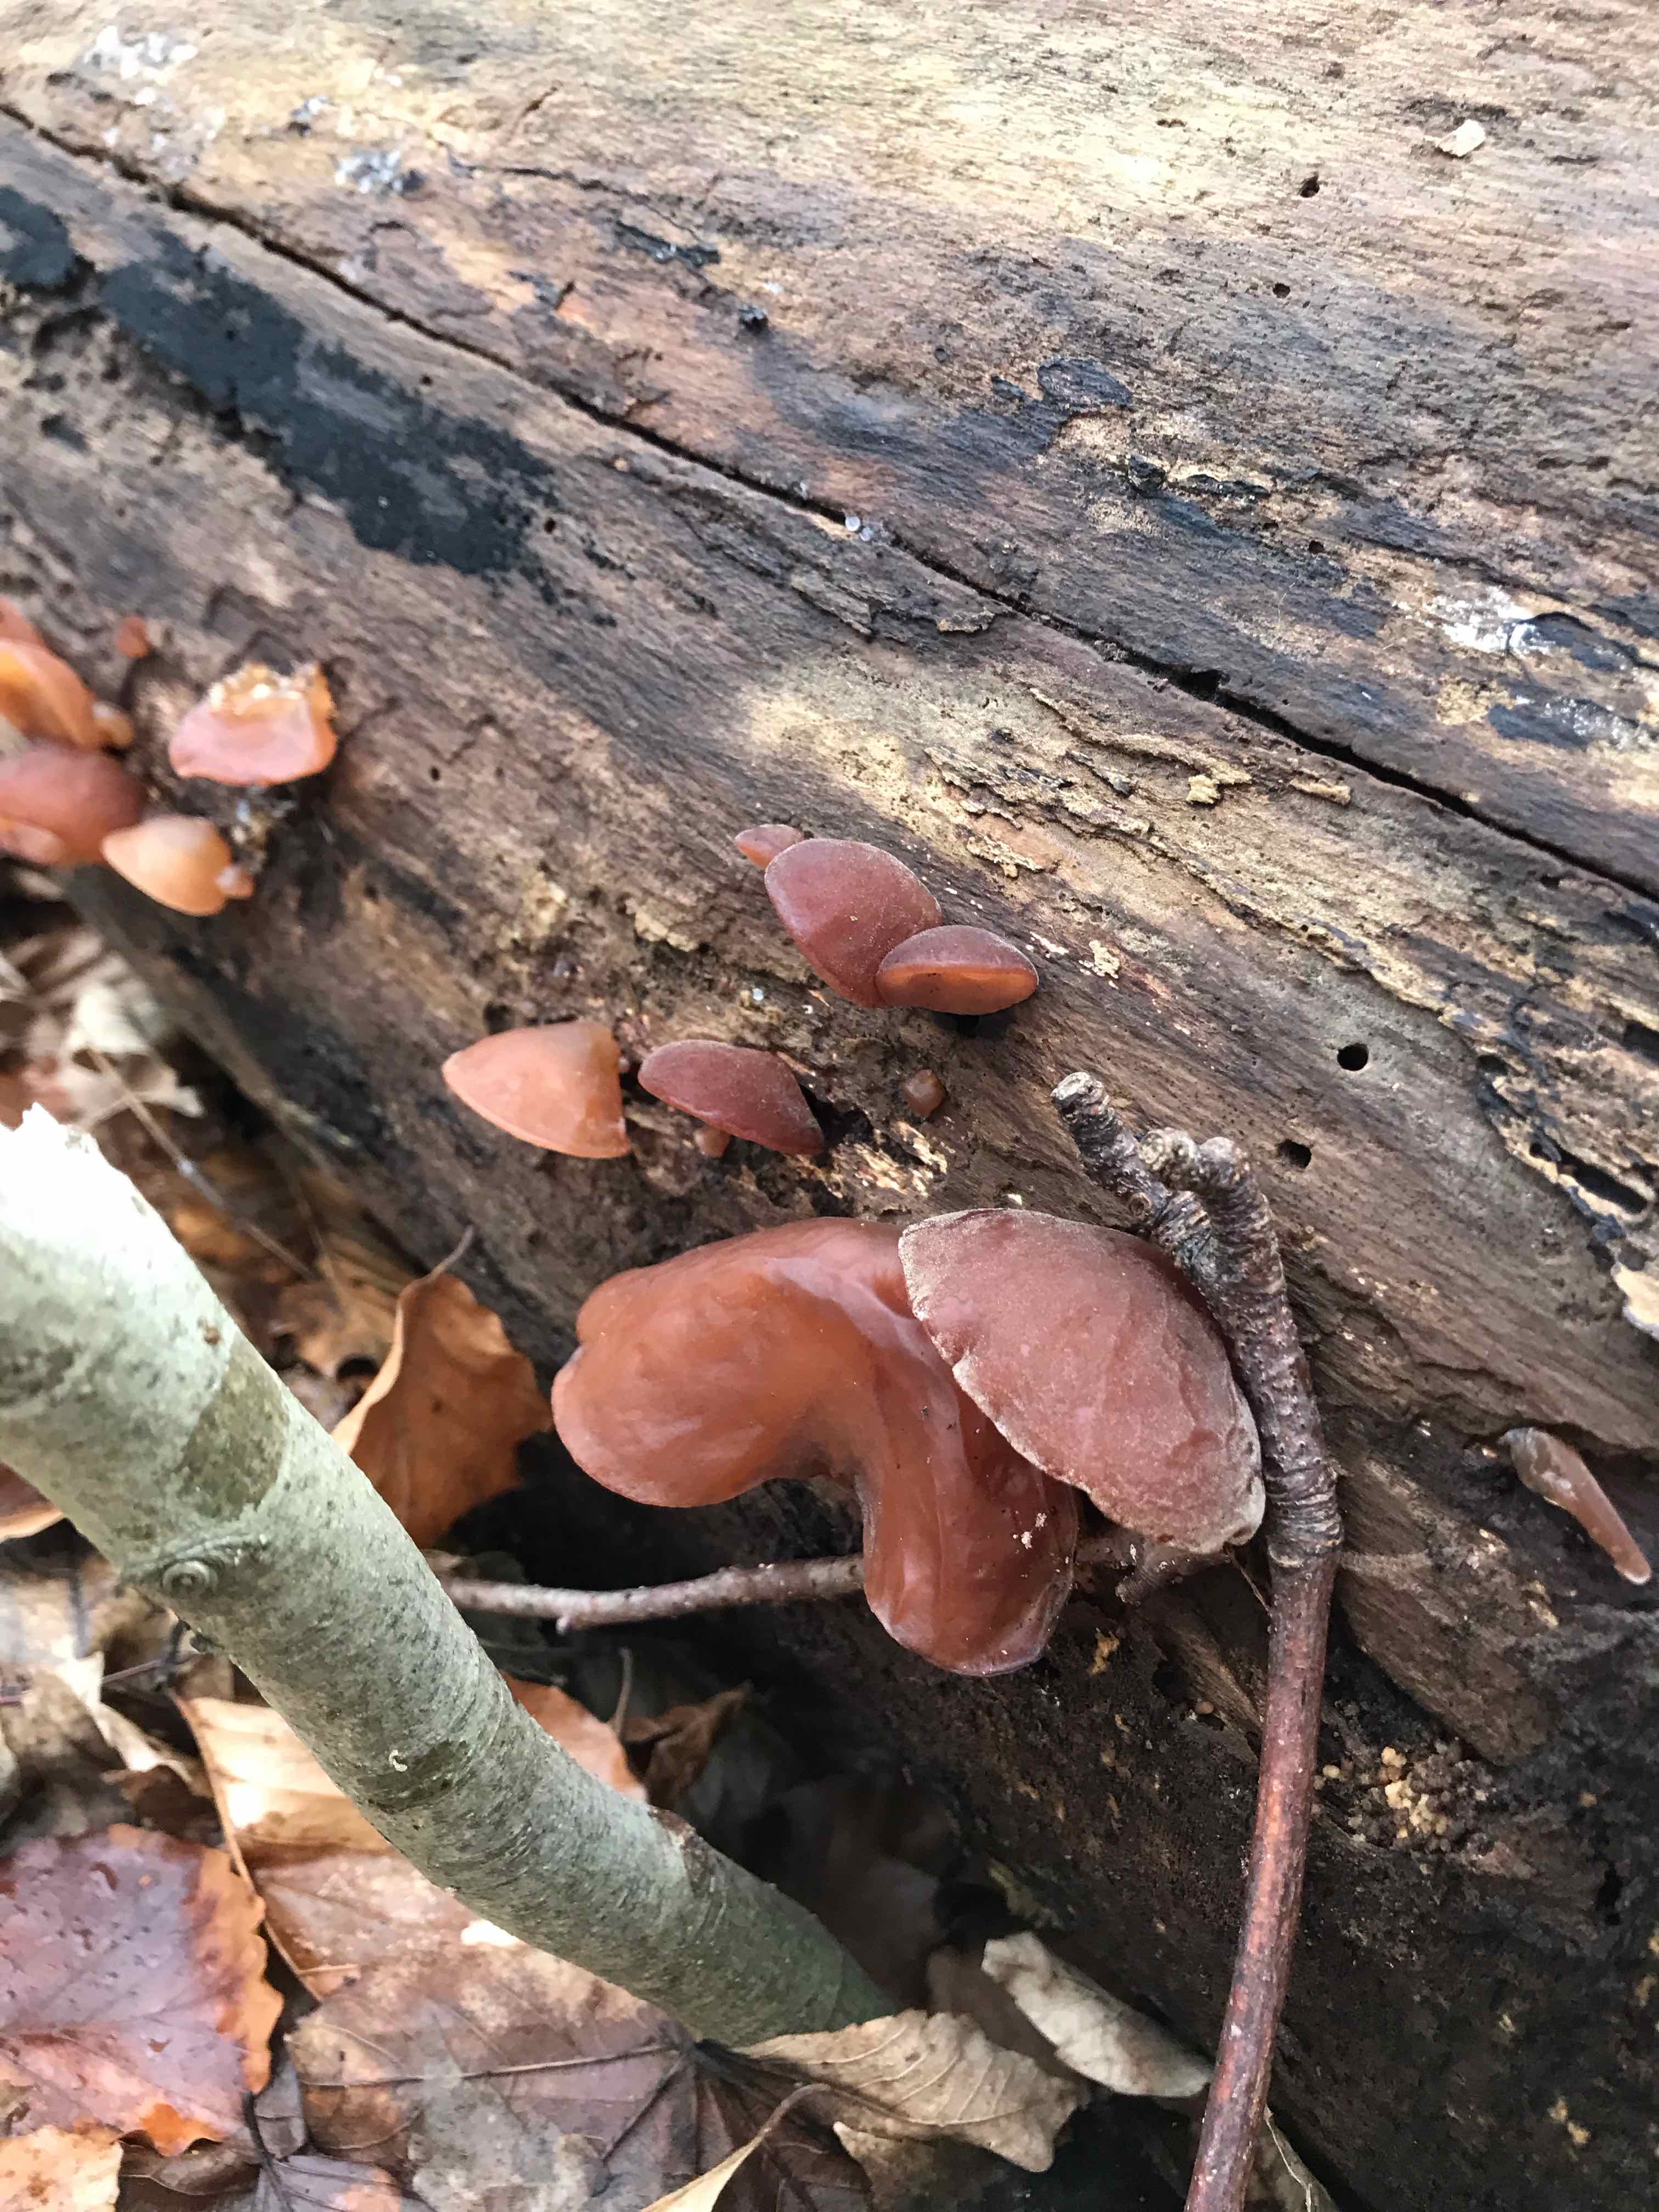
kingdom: Fungi
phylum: Basidiomycota
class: Agaricomycetes
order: Auriculariales
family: Auriculariaceae
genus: Auricularia
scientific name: Auricularia auricula-judae
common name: almindelig judasøre
